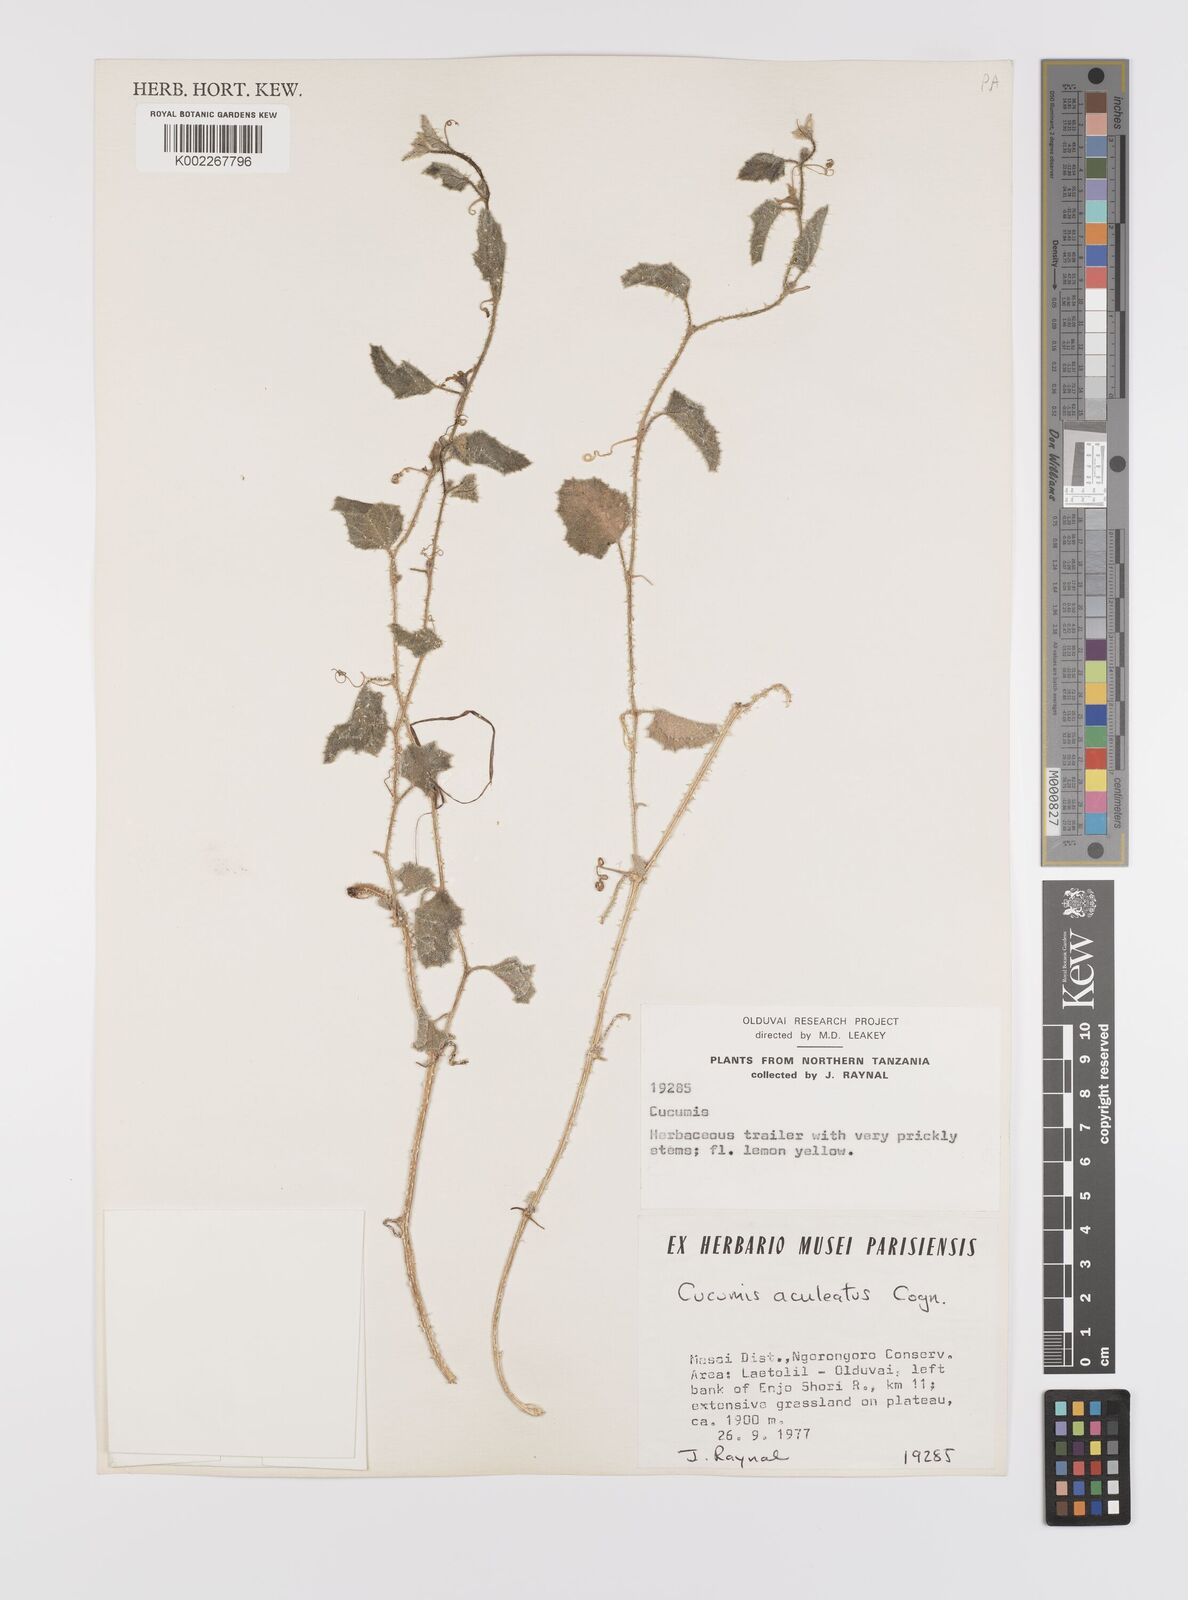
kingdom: Plantae
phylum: Tracheophyta
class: Magnoliopsida
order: Cucurbitales
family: Cucurbitaceae
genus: Cucumis
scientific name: Cucumis aculeatus
